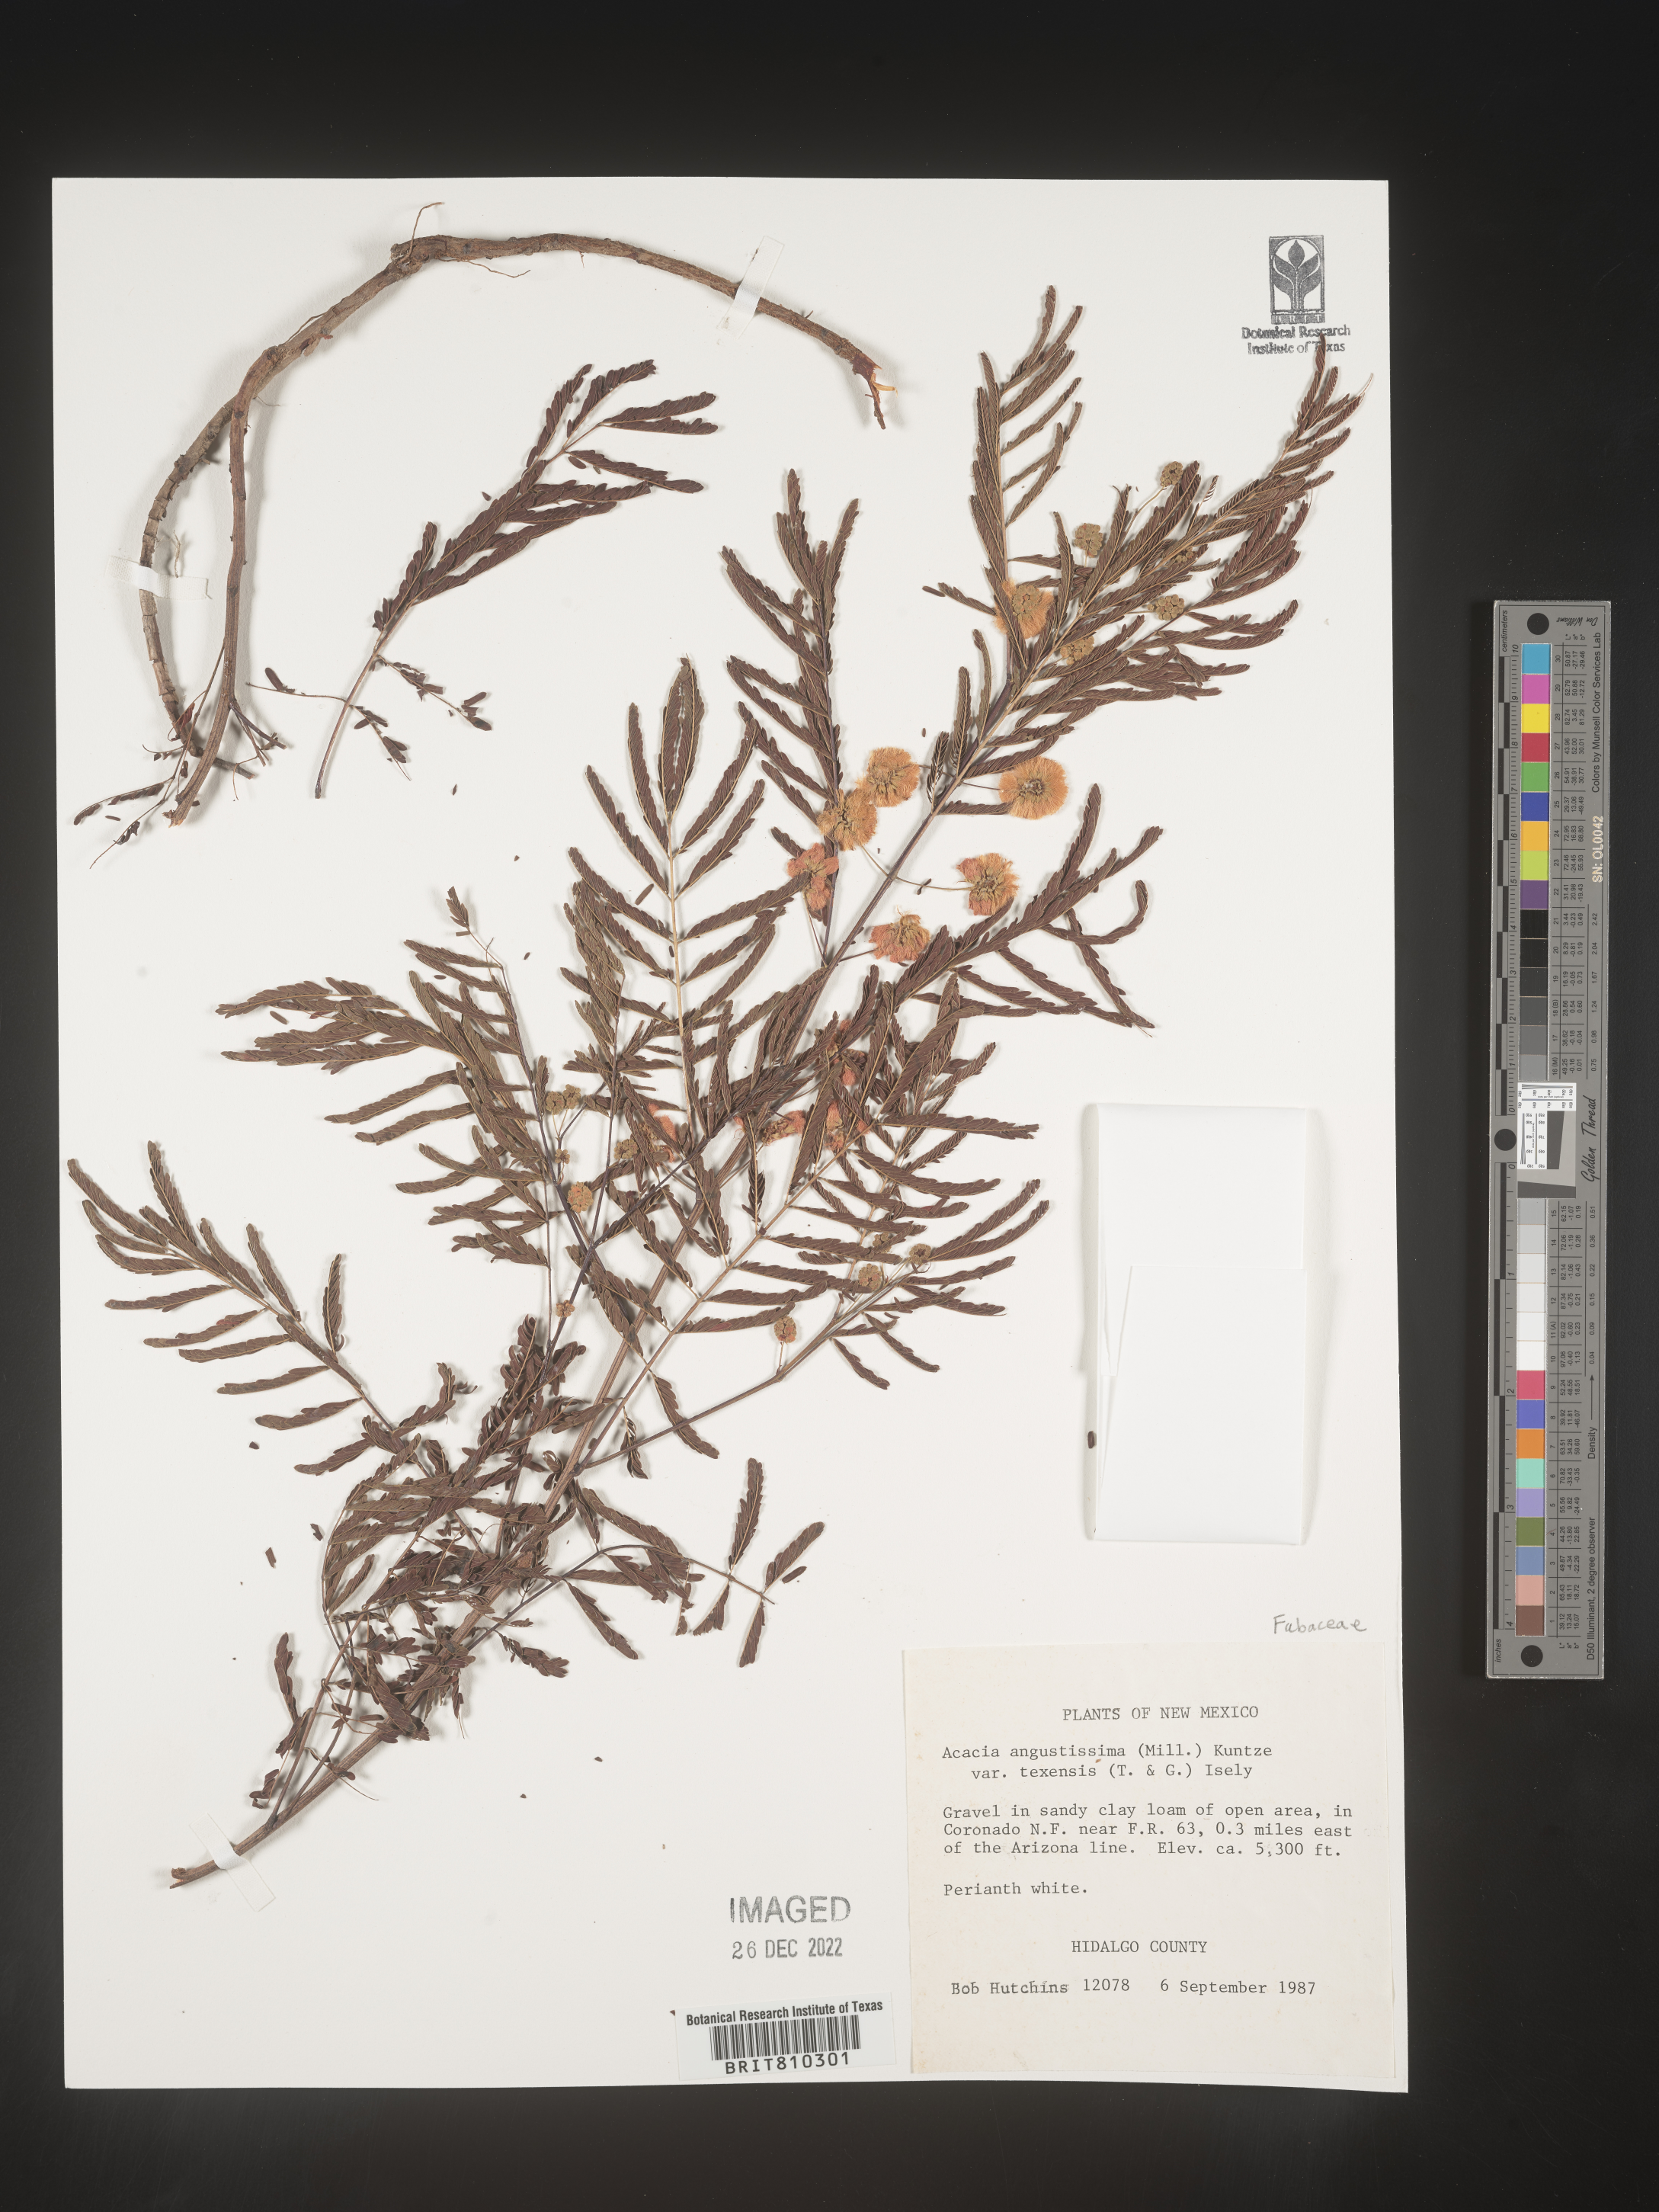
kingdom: Plantae
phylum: Tracheophyta
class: Magnoliopsida
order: Fabales
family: Fabaceae
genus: Acaciella
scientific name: Acaciella angustissima
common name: Prairie acacia
